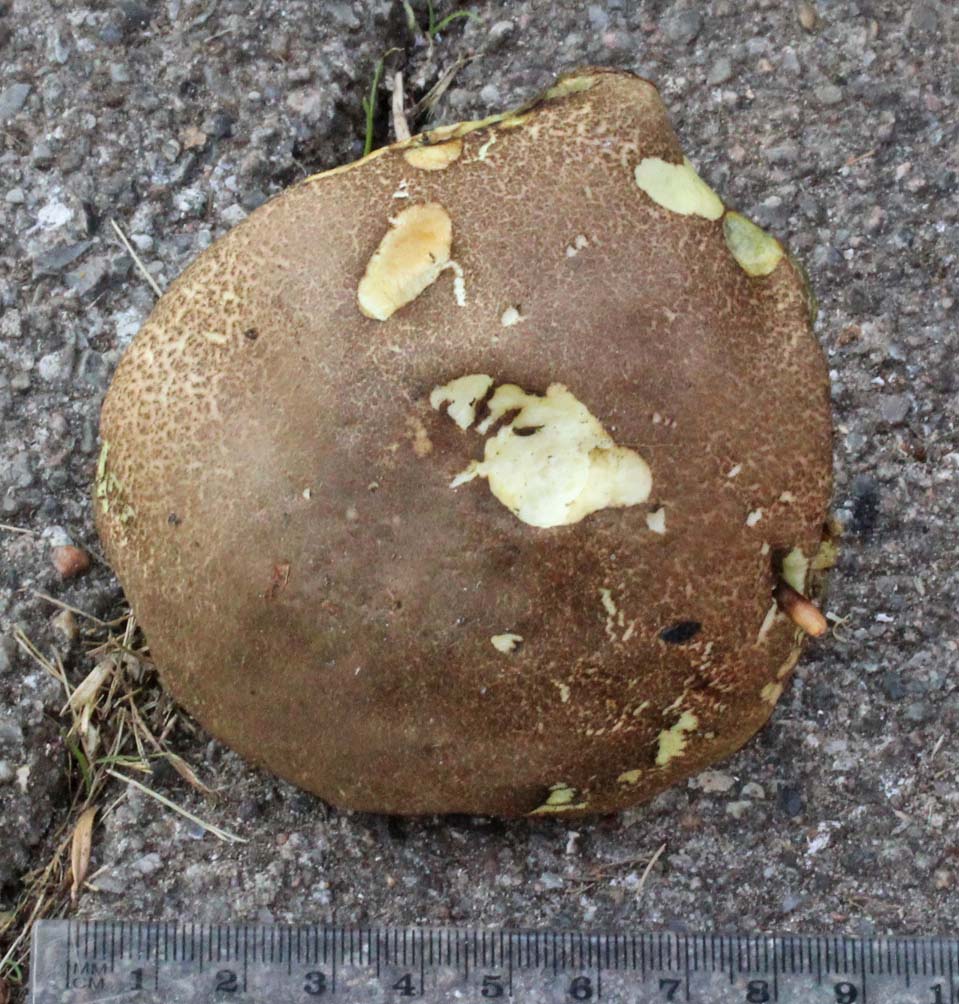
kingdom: Fungi
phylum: Basidiomycota
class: Agaricomycetes
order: Boletales
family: Boletaceae
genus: Xerocomellus
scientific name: Xerocomellus chrysenteron
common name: rødsprukken rørhat
